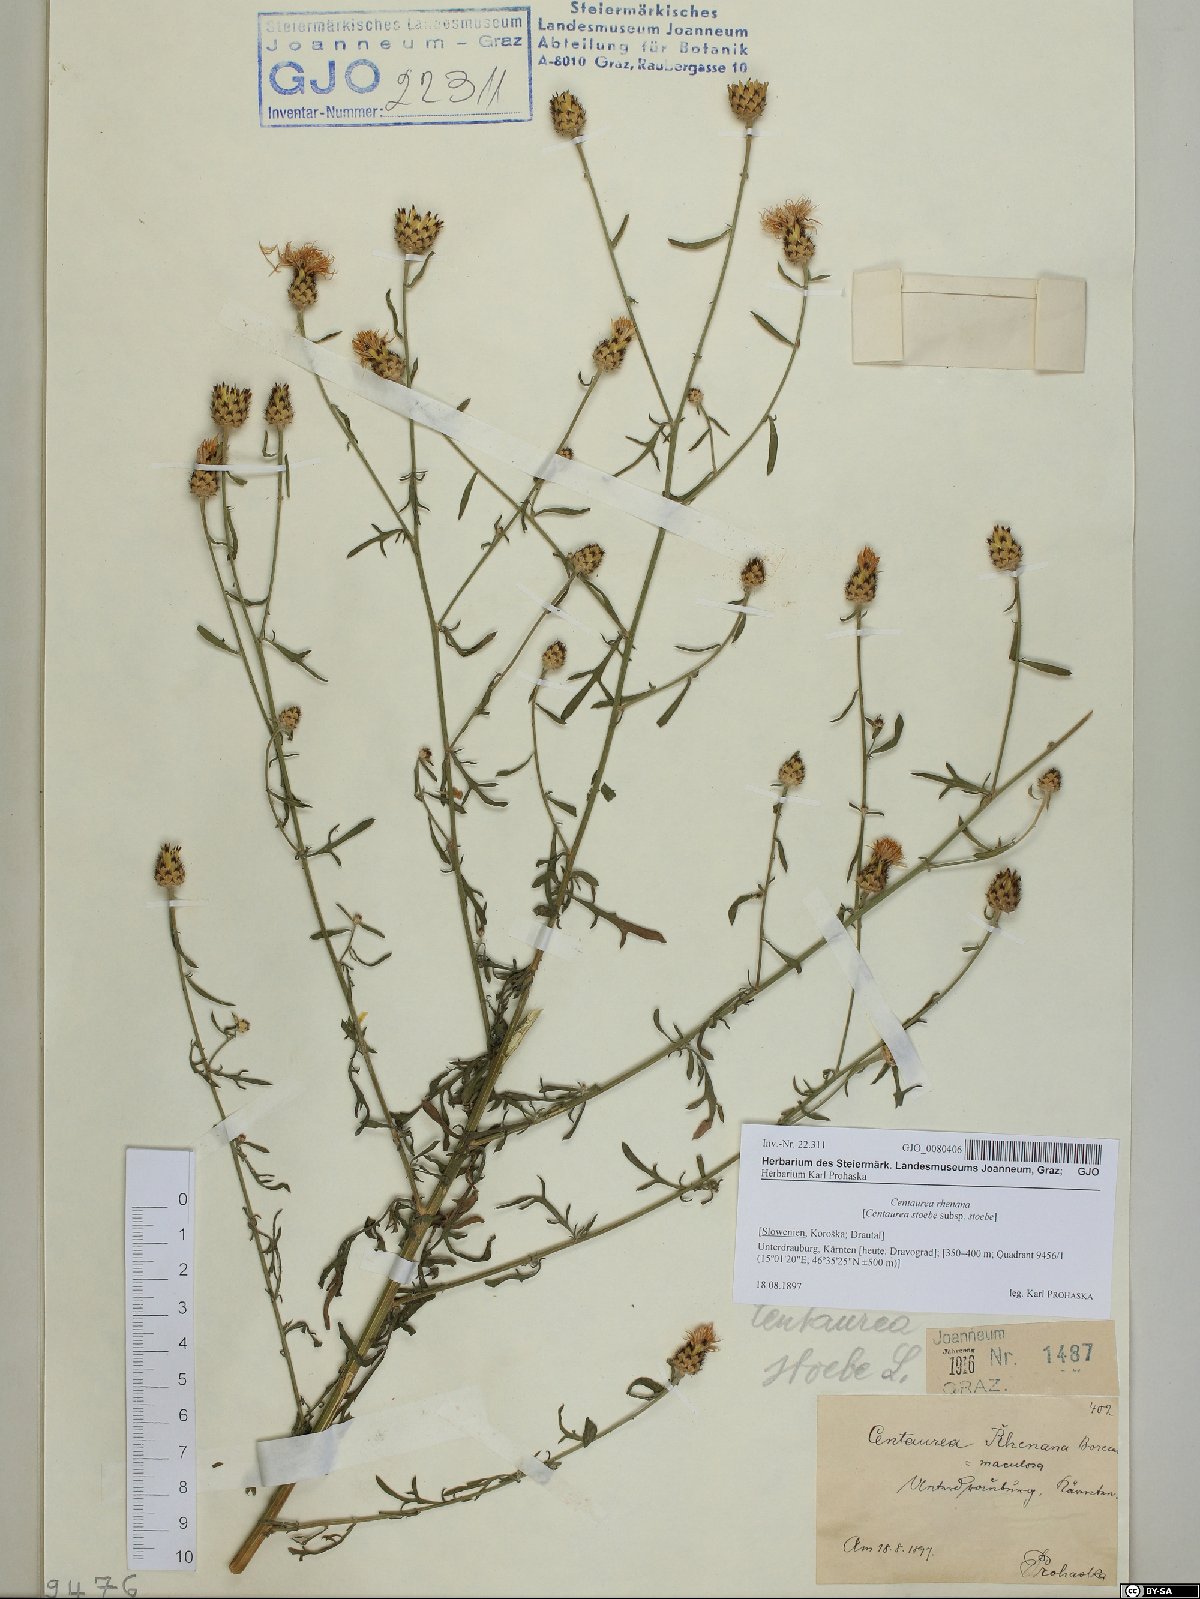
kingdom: Plantae
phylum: Tracheophyta
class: Magnoliopsida
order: Asterales
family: Asteraceae
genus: Centaurea
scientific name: Centaurea stoebe
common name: Spotted knapweed
